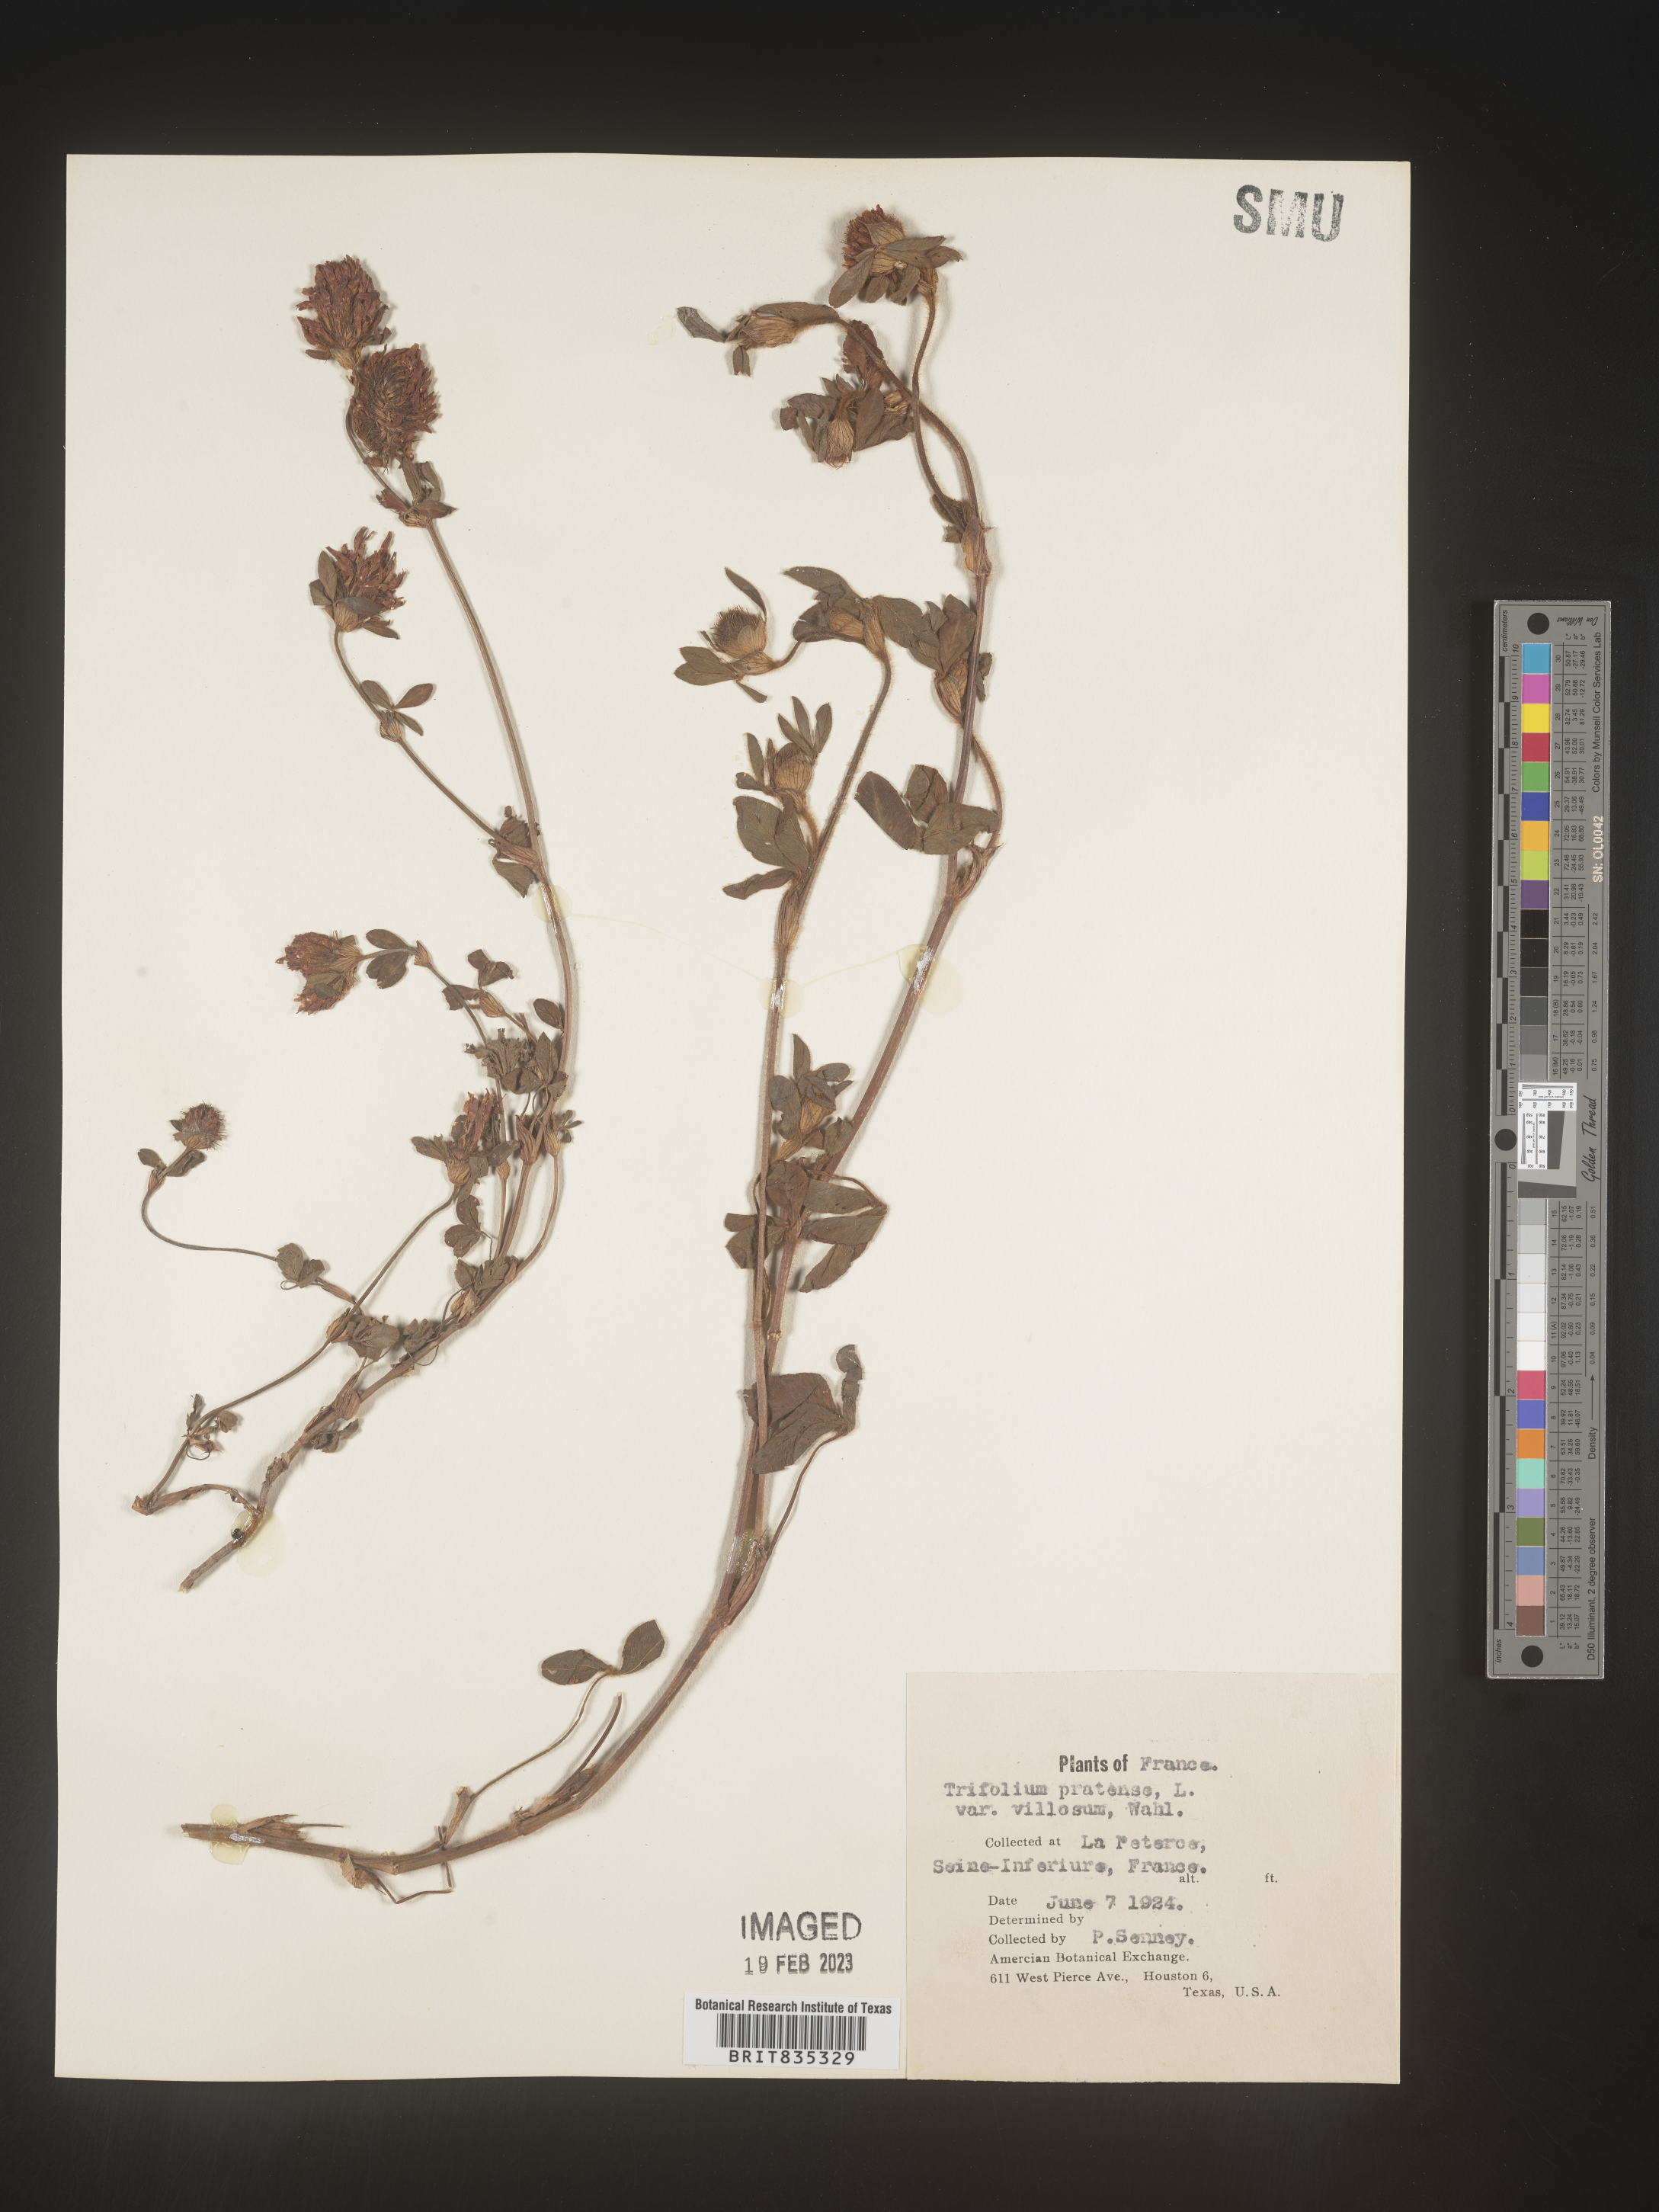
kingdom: Plantae
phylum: Tracheophyta
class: Magnoliopsida
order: Fabales
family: Fabaceae
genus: Trifolium
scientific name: Trifolium
